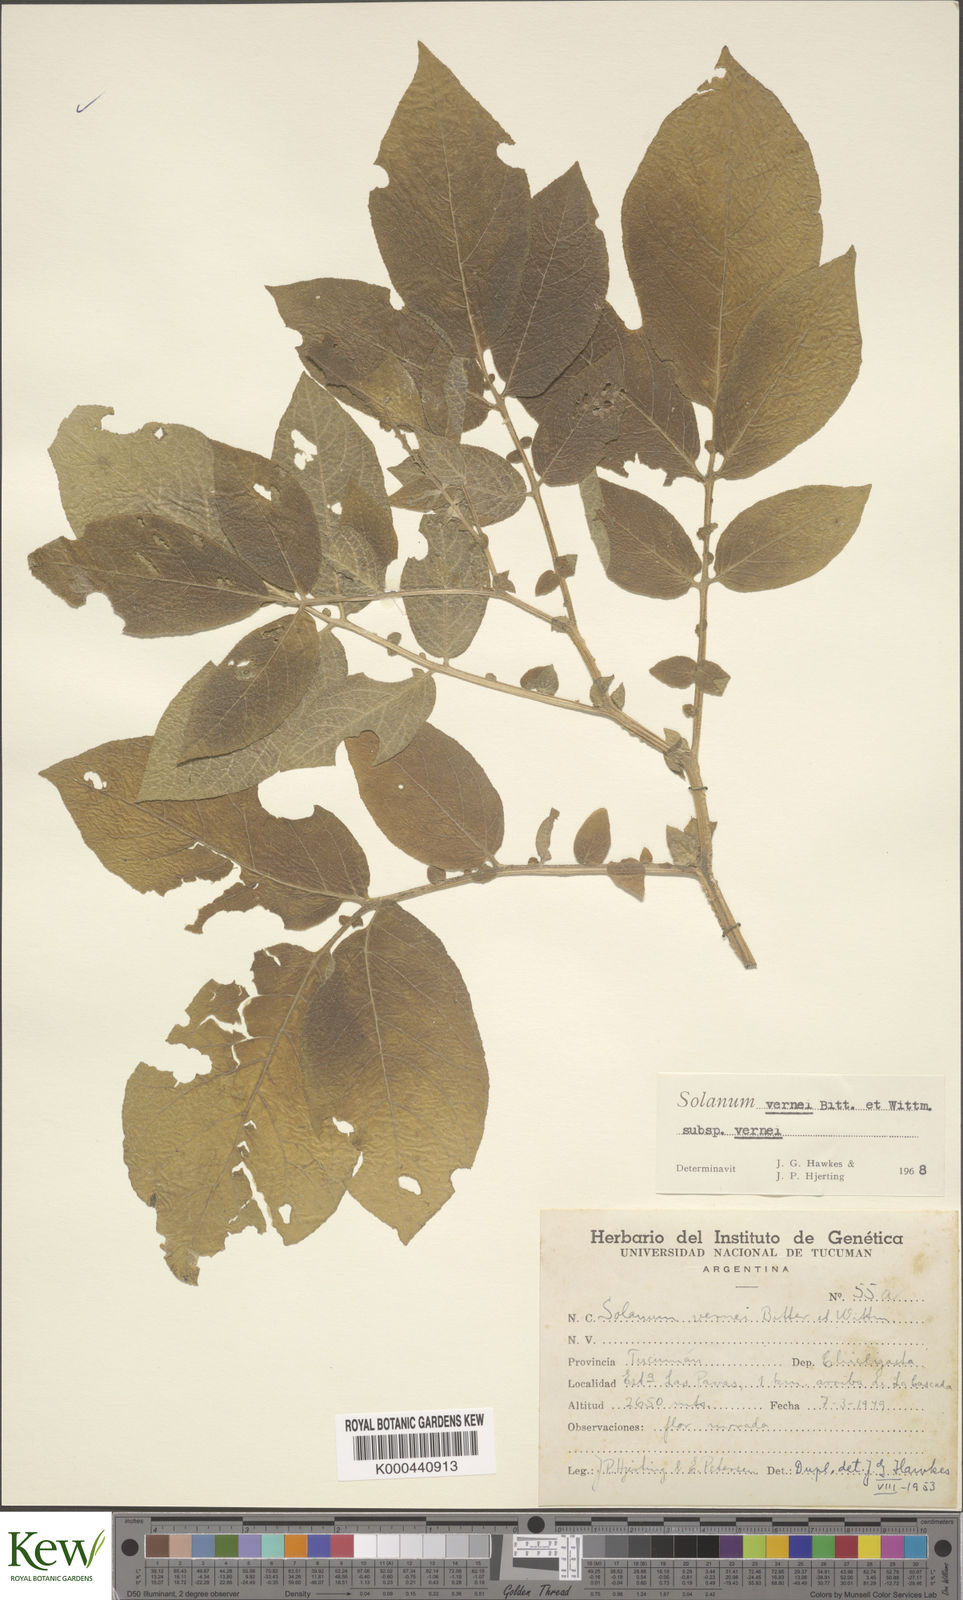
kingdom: Plantae
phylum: Tracheophyta
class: Magnoliopsida
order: Solanales
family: Solanaceae
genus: Solanum
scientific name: Solanum vernei
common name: Purple potato
